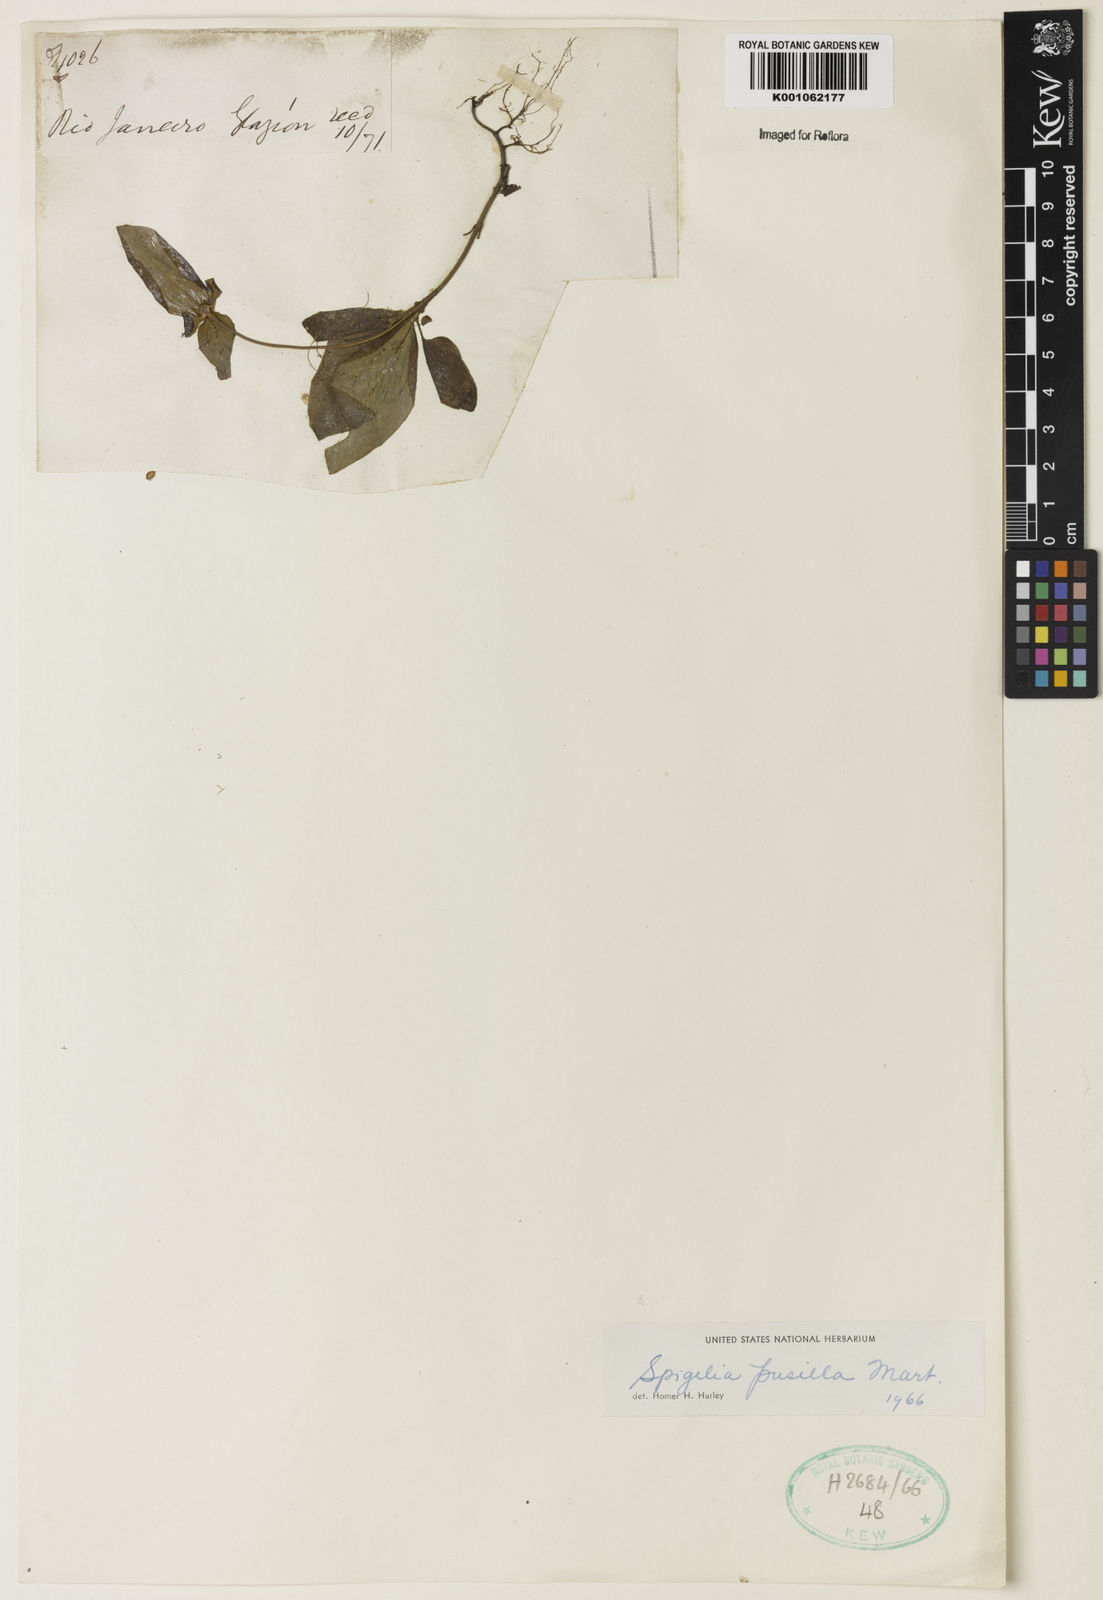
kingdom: Plantae
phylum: Tracheophyta
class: Magnoliopsida
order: Gentianales
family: Loganiaceae
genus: Spigelia
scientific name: Spigelia pusilla
